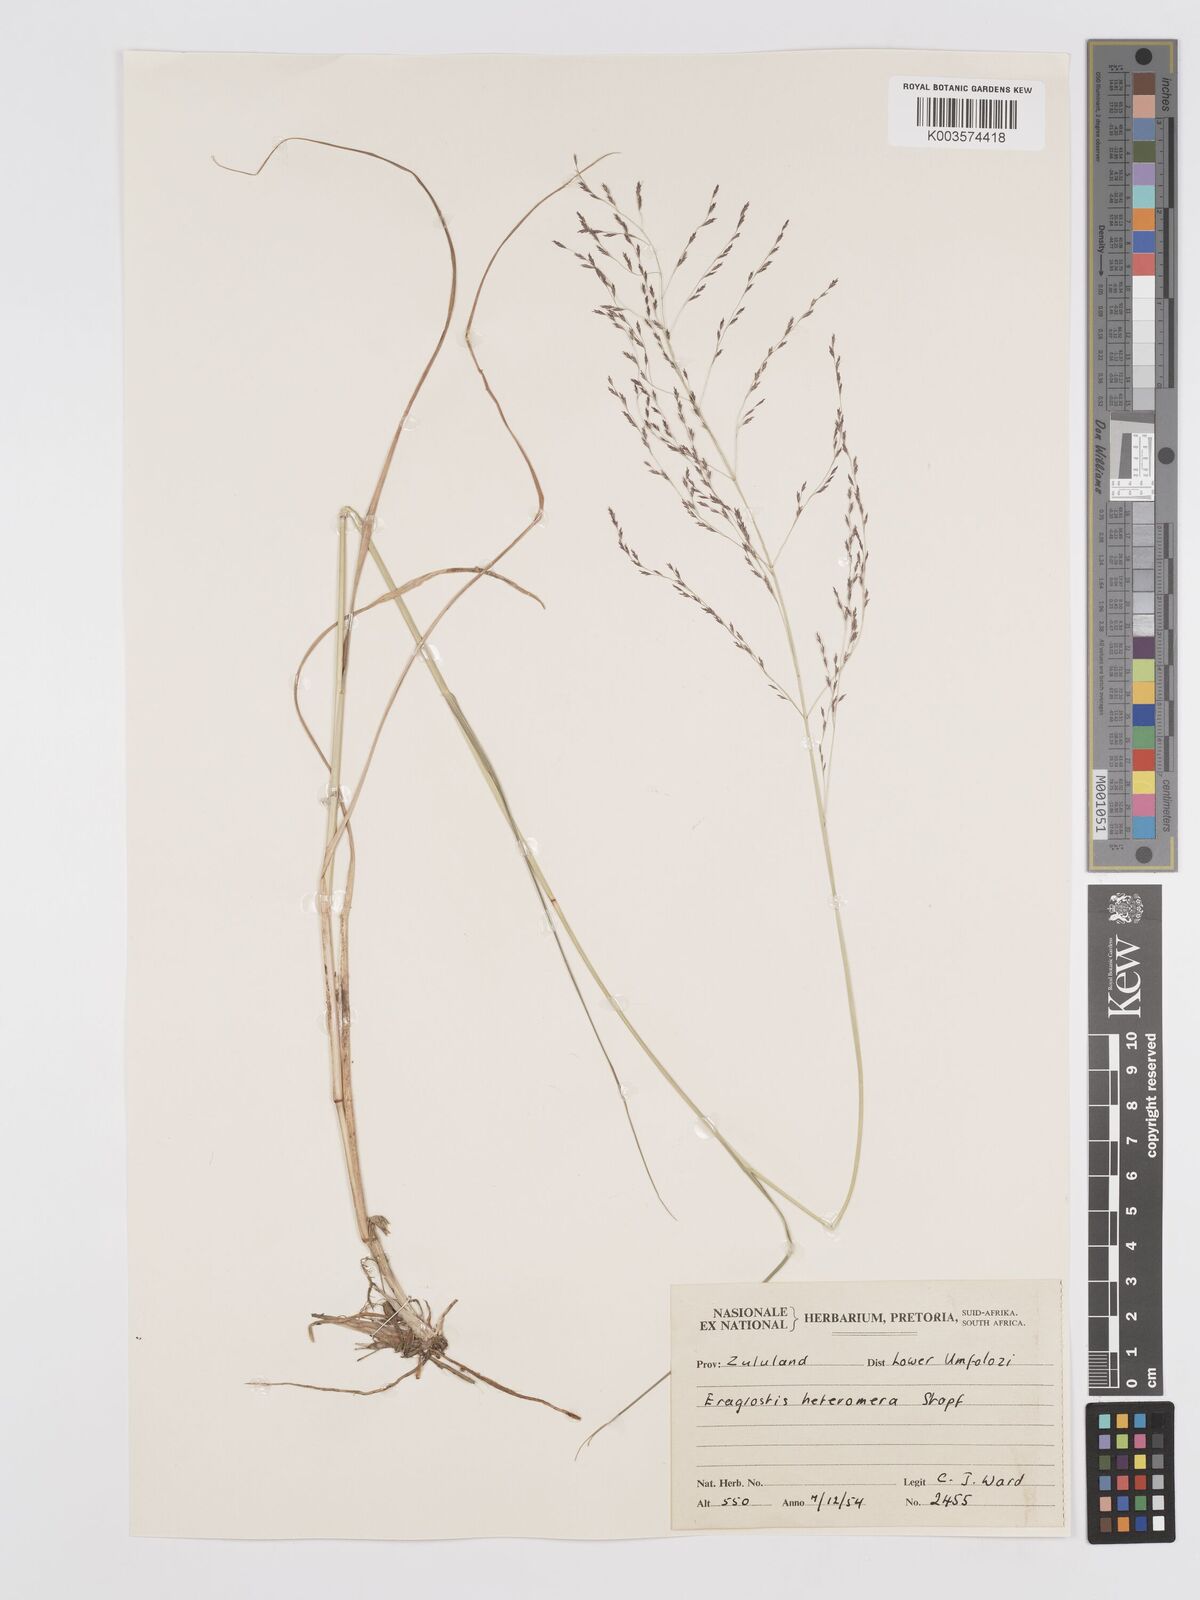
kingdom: Plantae
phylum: Tracheophyta
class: Liliopsida
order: Poales
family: Poaceae
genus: Eragrostis
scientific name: Eragrostis heteromera
